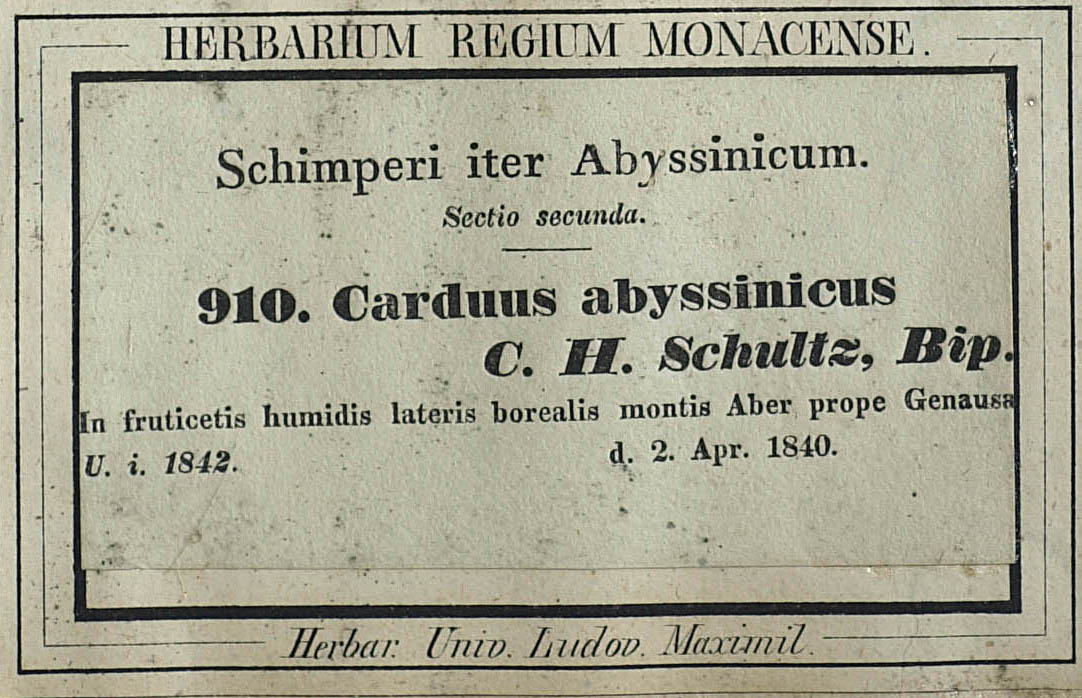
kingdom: Plantae
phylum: Tracheophyta
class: Magnoliopsida
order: Asterales
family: Asteraceae
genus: Carduus
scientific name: Carduus leptacanthus
